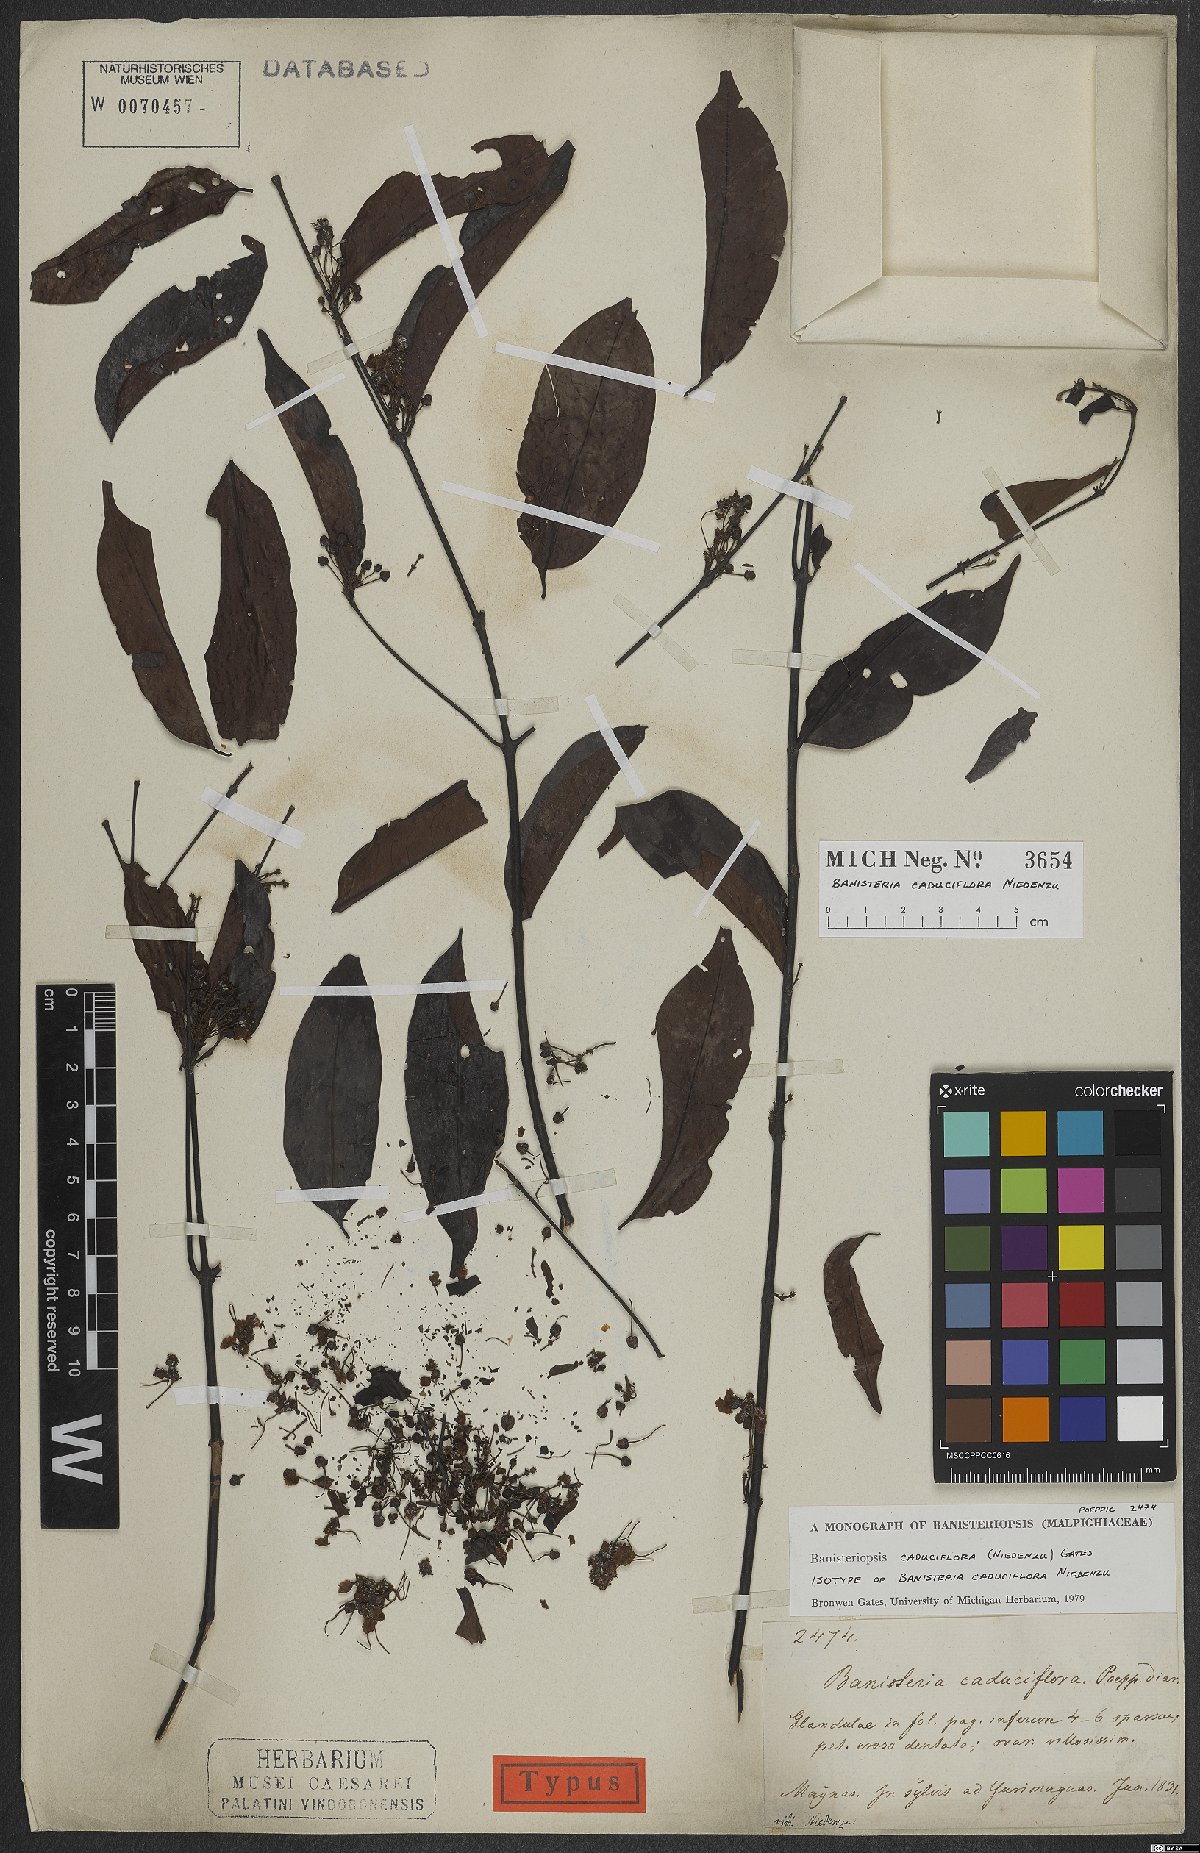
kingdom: Plantae
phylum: Tracheophyta
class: Magnoliopsida
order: Malpighiales
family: Malpighiaceae
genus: Diplopterys
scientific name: Diplopterys caduciflora
